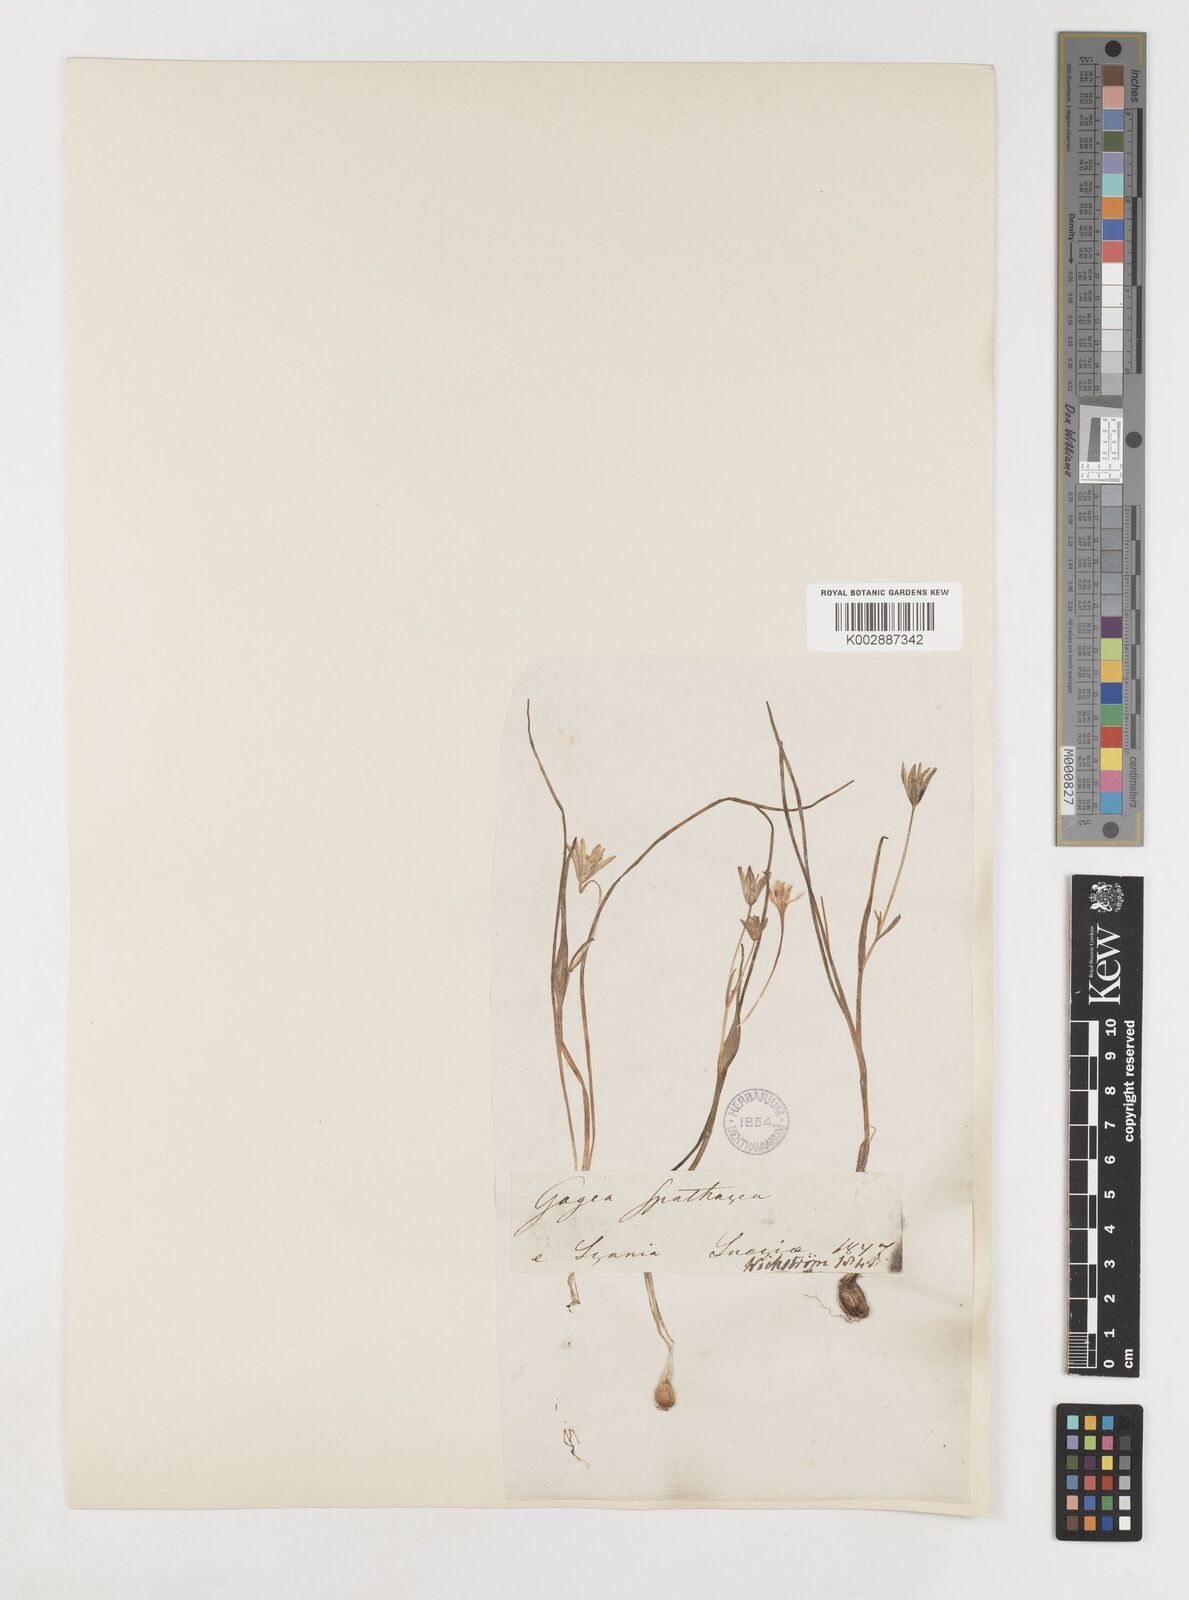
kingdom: Plantae
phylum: Tracheophyta
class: Liliopsida
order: Liliales
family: Liliaceae
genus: Gagea
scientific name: Gagea spathacea
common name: Belgian gagea
